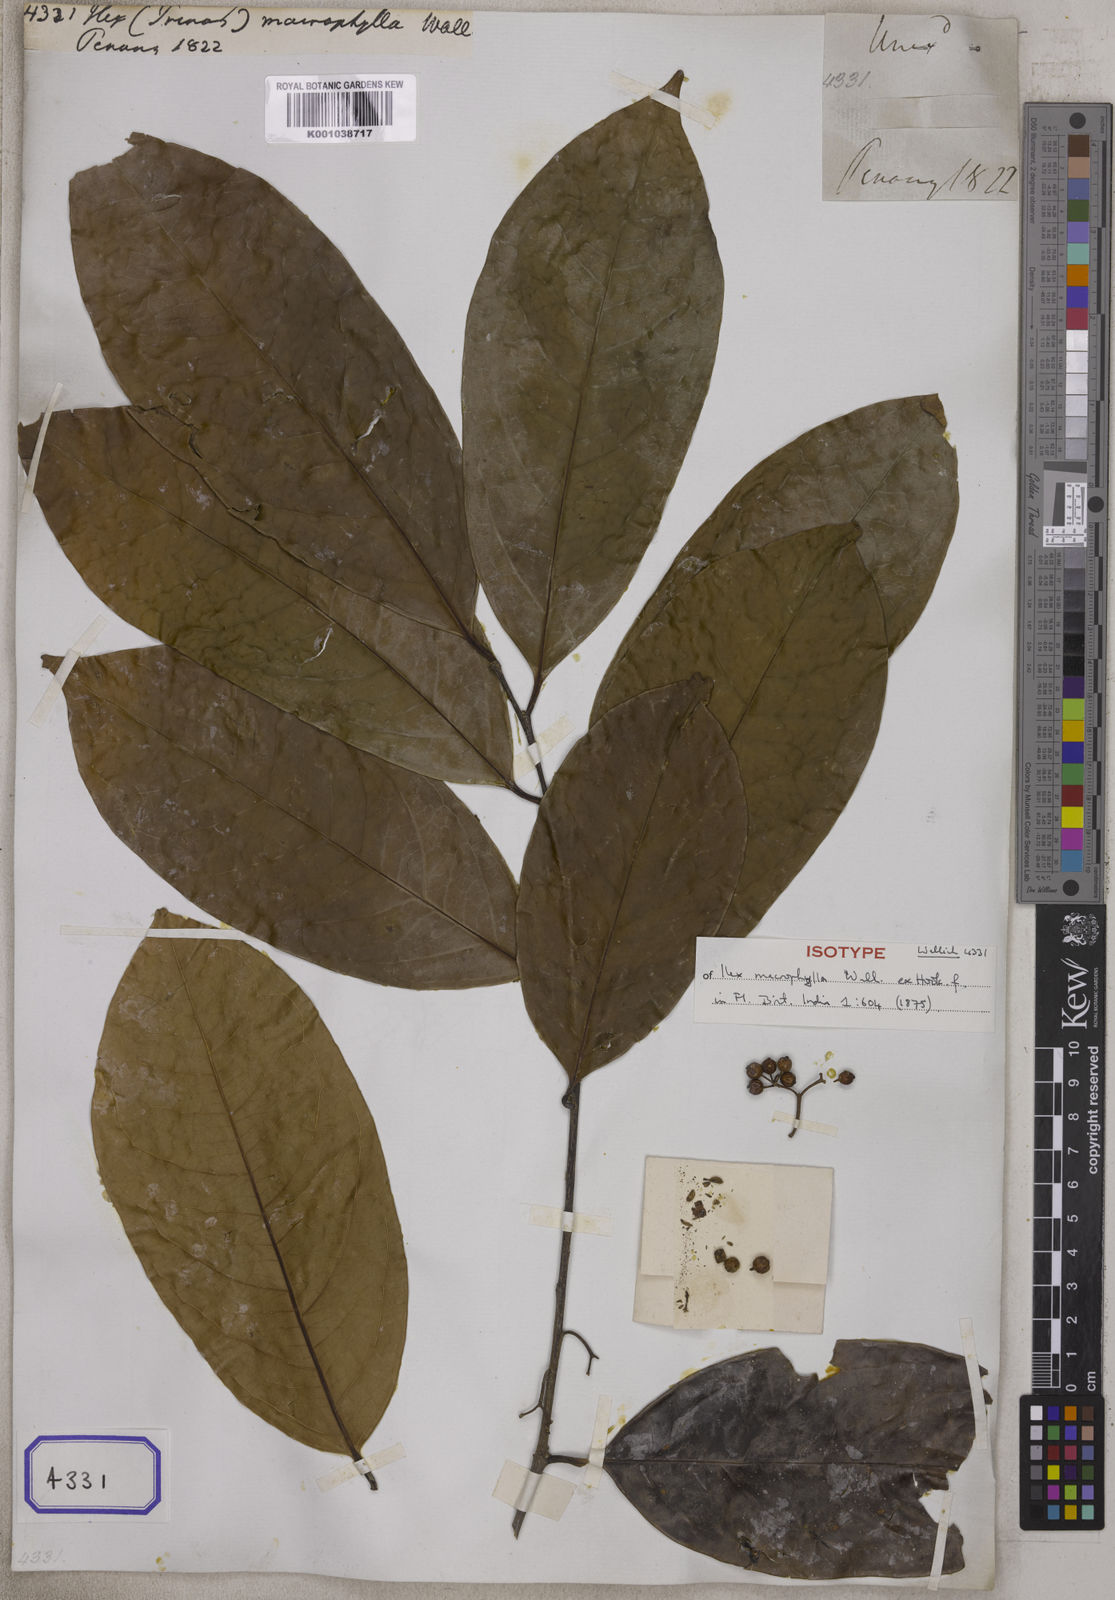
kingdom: Plantae
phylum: Tracheophyta
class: Magnoliopsida
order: Aquifoliales
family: Aquifoliaceae
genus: Ilex
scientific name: Ilex
